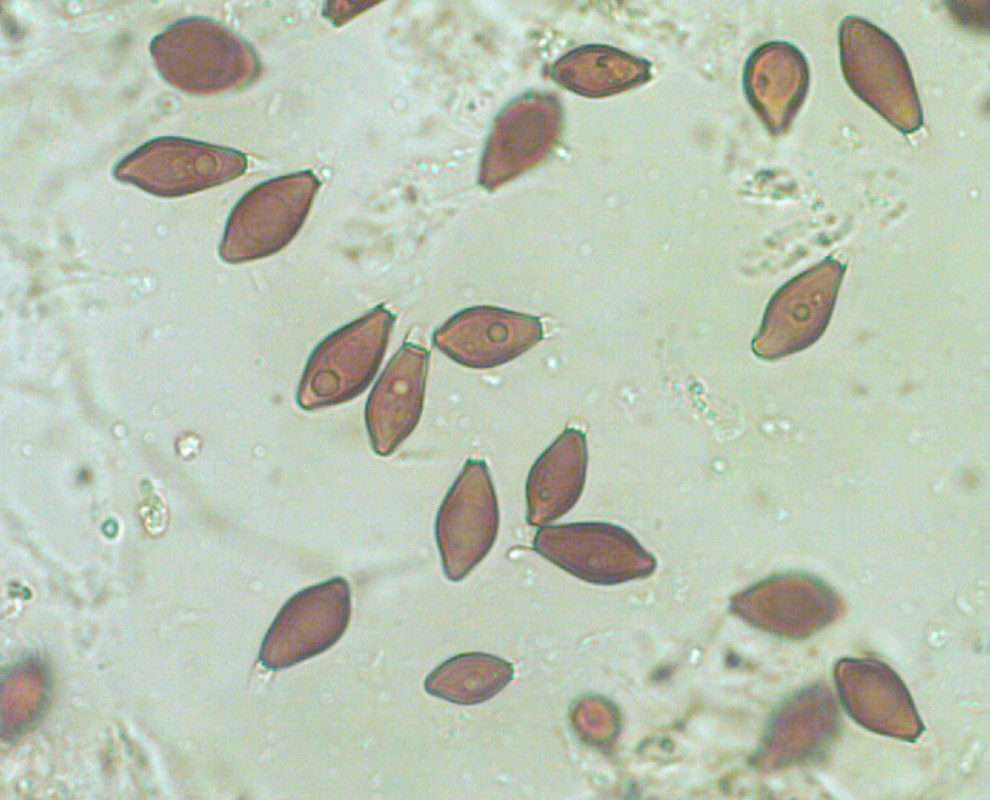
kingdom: Fungi
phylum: Basidiomycota
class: Agaricomycetes
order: Boletales
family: Paxillaceae
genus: Melanogaster
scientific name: Melanogaster ambiguus
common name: lille slimtrøffel
